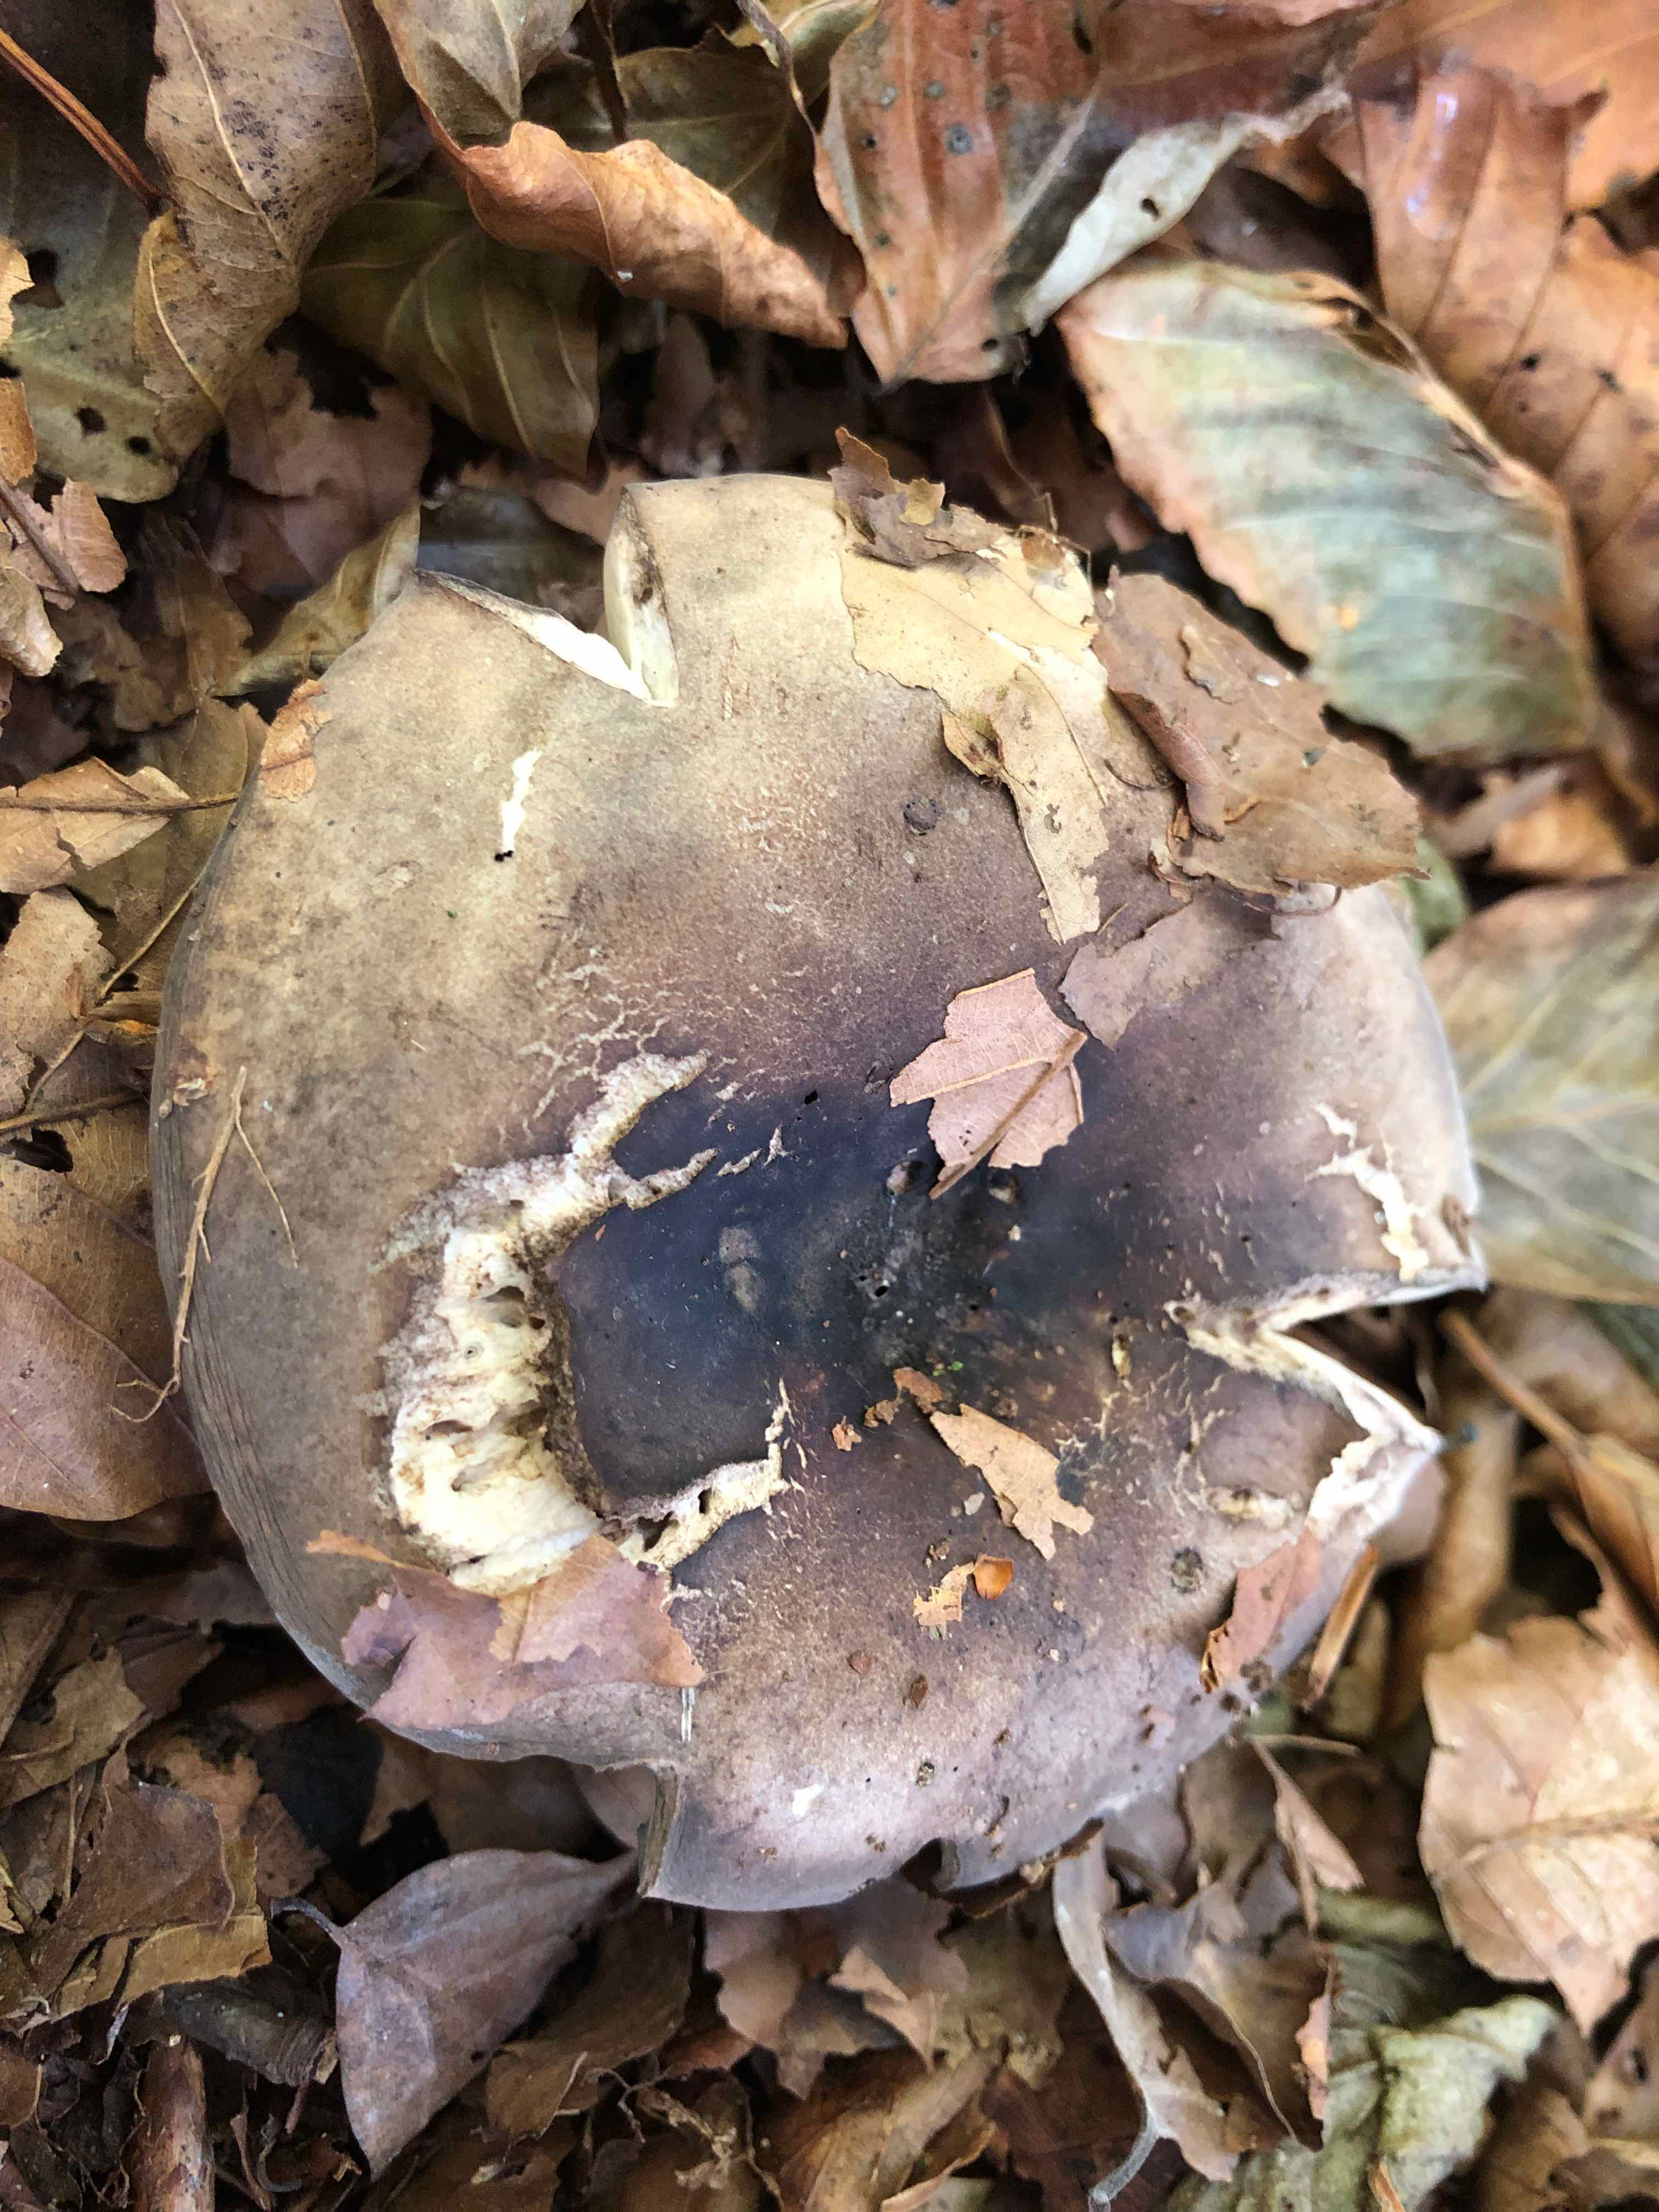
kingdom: Fungi
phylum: Basidiomycota
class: Agaricomycetes
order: Russulales
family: Russulaceae
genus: Russula
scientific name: Russula adusta
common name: sværtende skørhat
